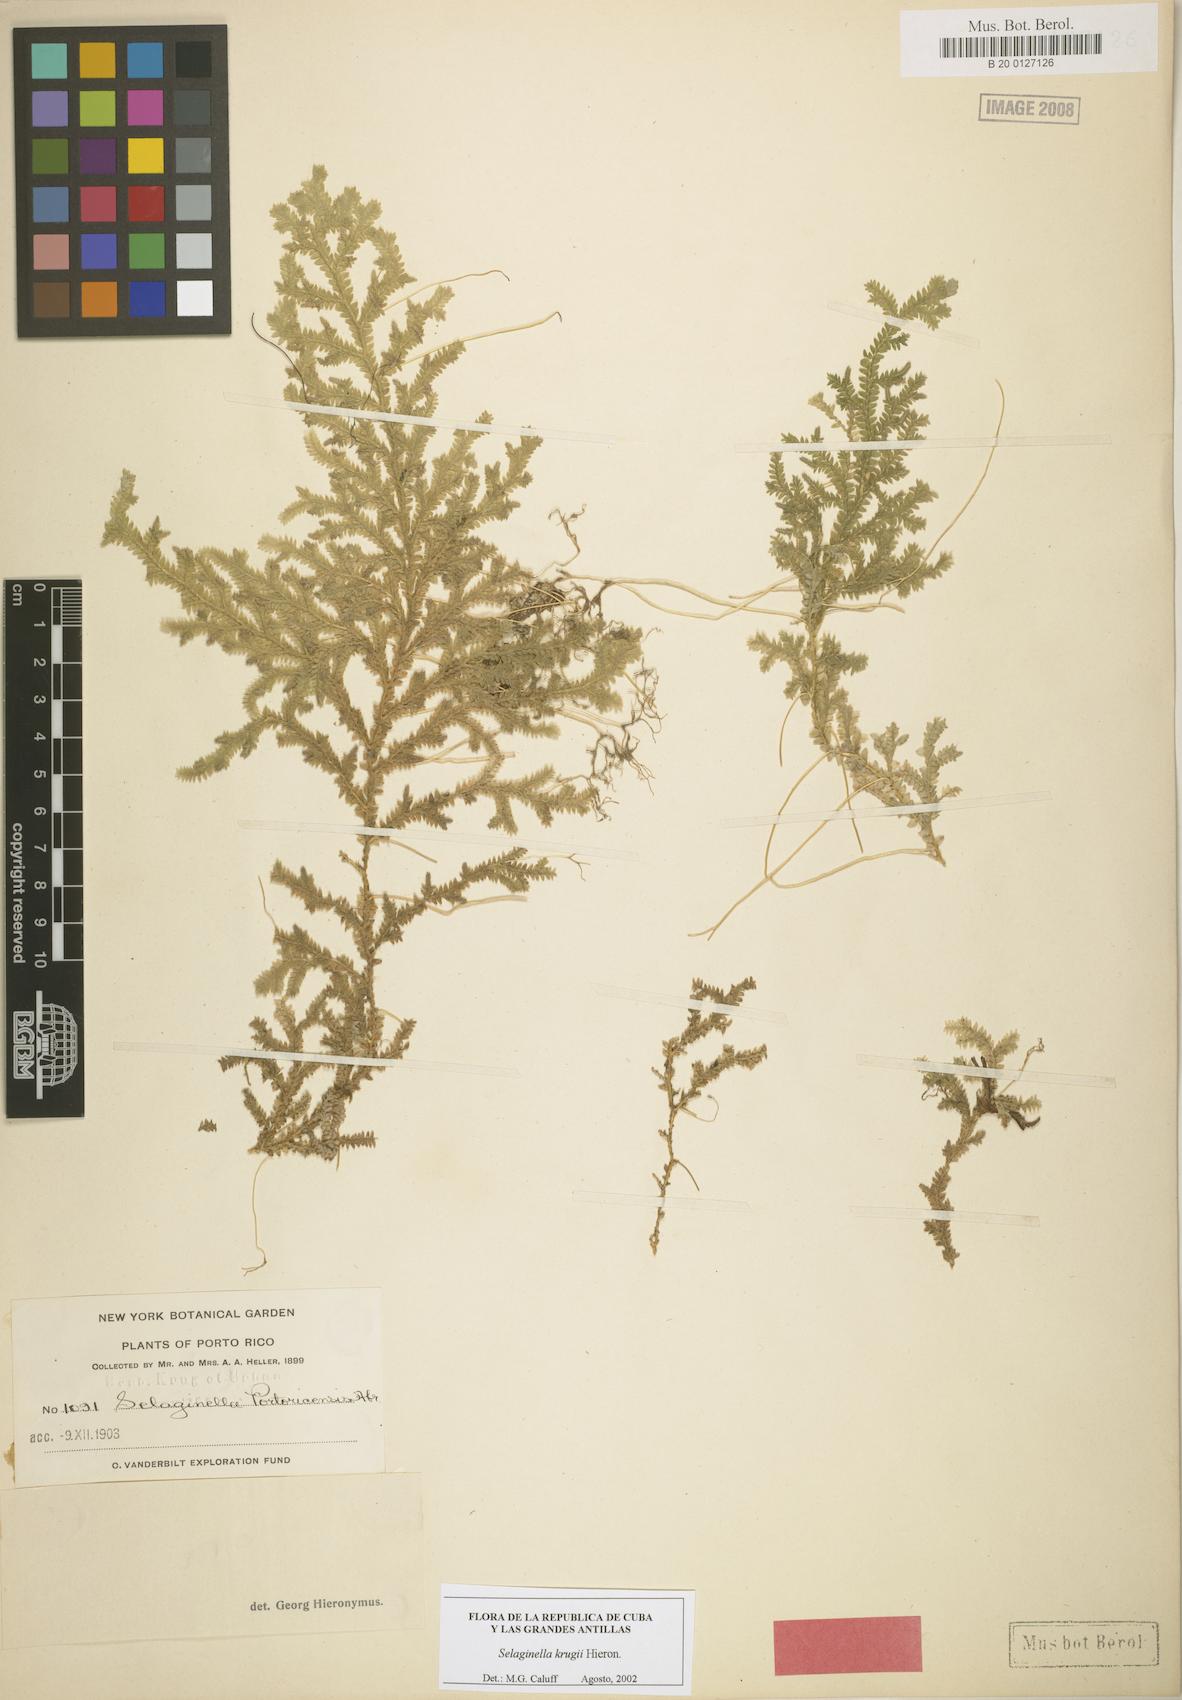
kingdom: Plantae
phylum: Tracheophyta
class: Lycopodiopsida
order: Selaginellales
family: Selaginellaceae
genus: Selaginella
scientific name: Selaginella krugii
